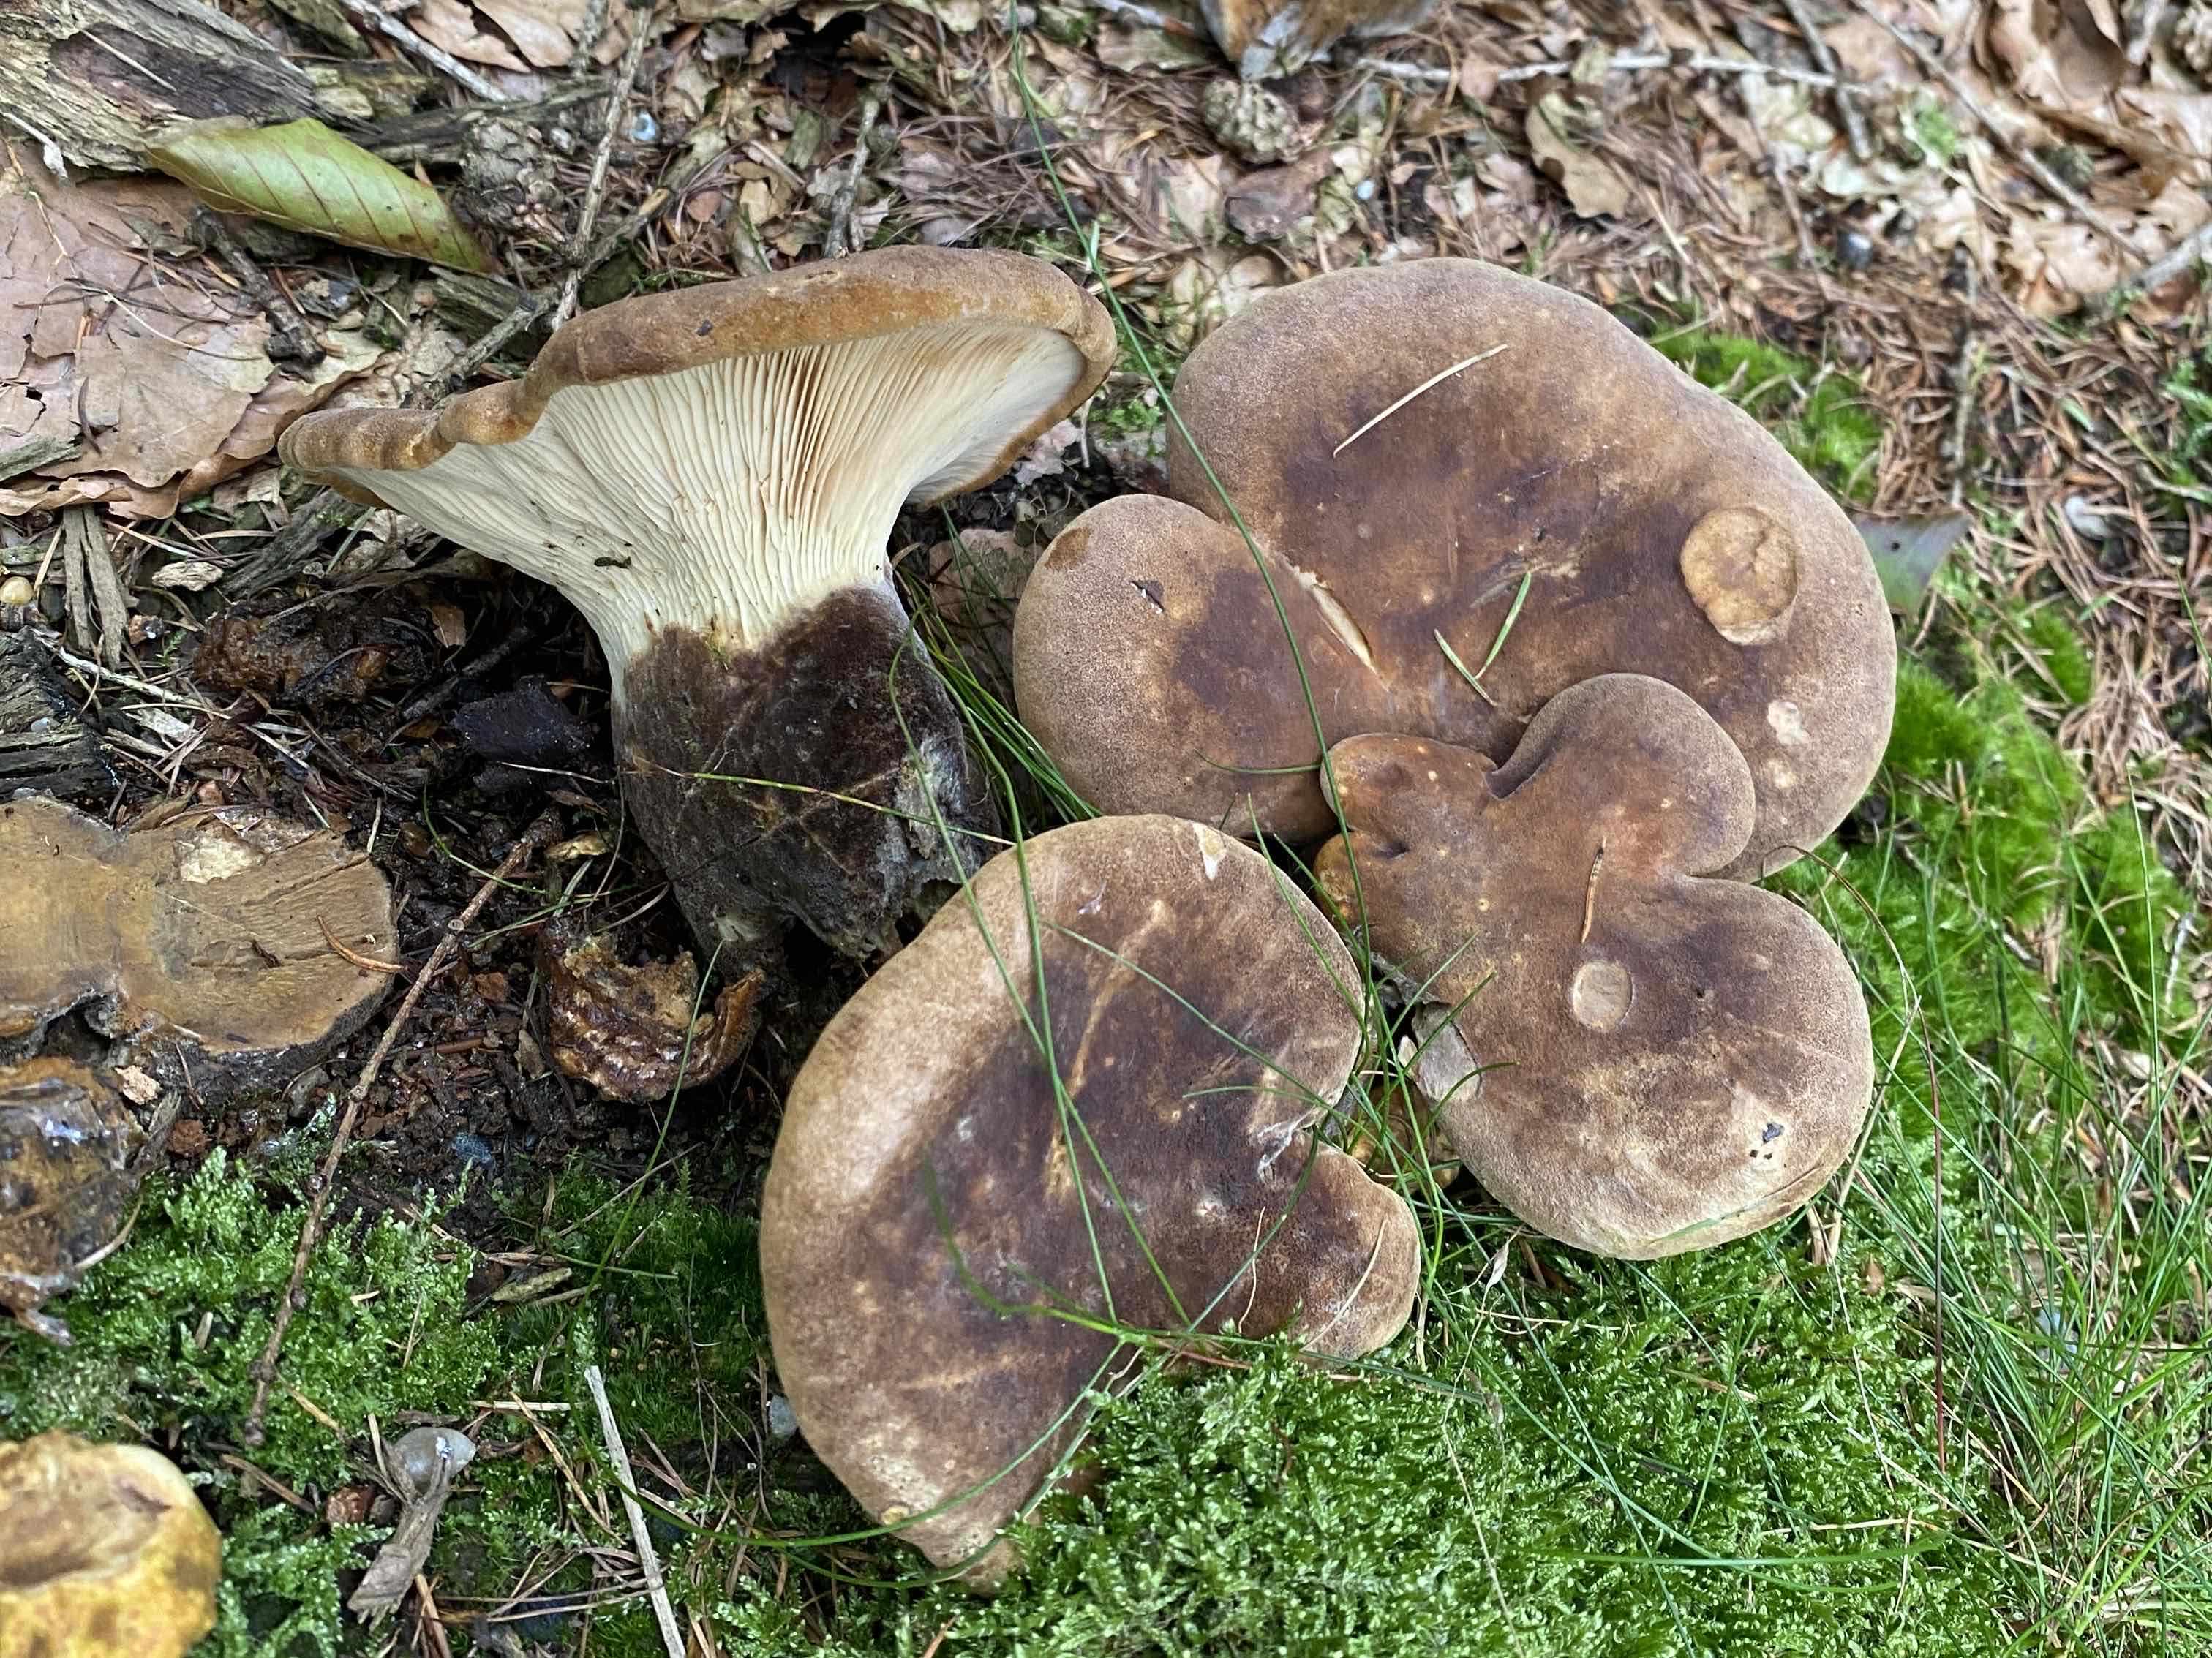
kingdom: Fungi
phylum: Basidiomycota
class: Agaricomycetes
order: Boletales
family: Tapinellaceae
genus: Tapinella
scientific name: Tapinella atrotomentosa
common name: sortfiltet viftesvamp
